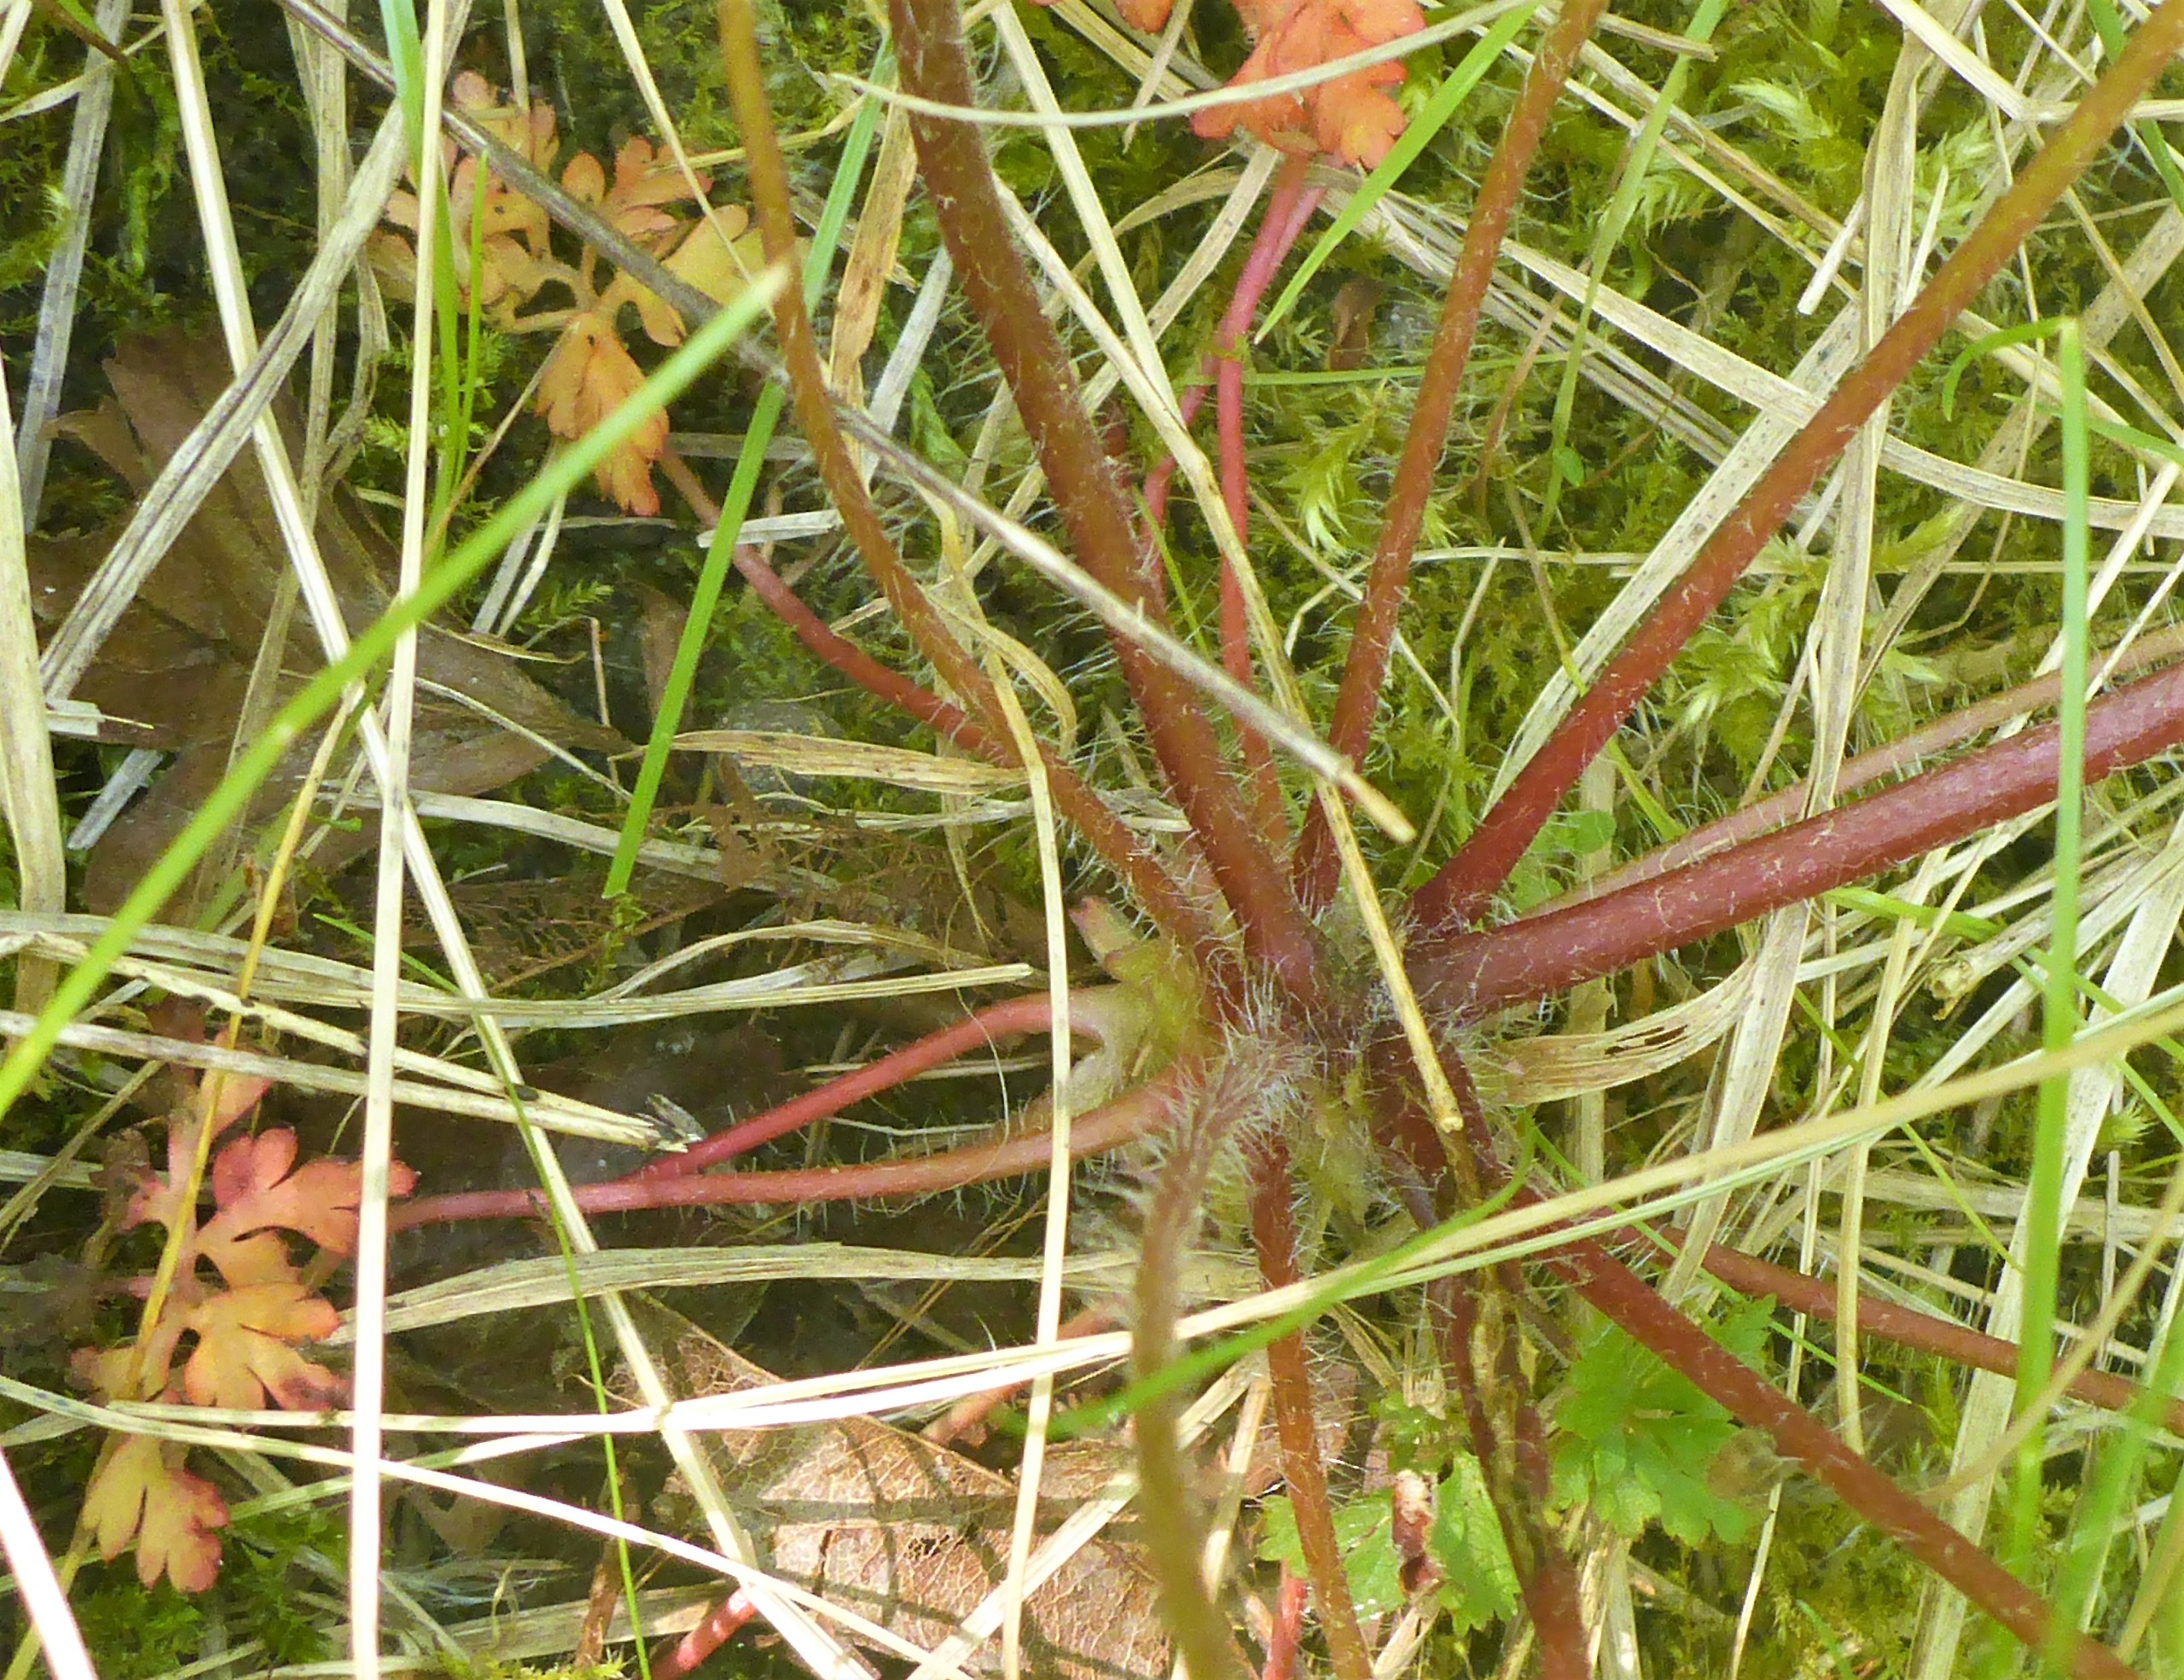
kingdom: Plantae
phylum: Tracheophyta
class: Magnoliopsida
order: Geraniales
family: Geraniaceae
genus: Geranium
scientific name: Geranium robertianum
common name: Stinkende storkenæb
